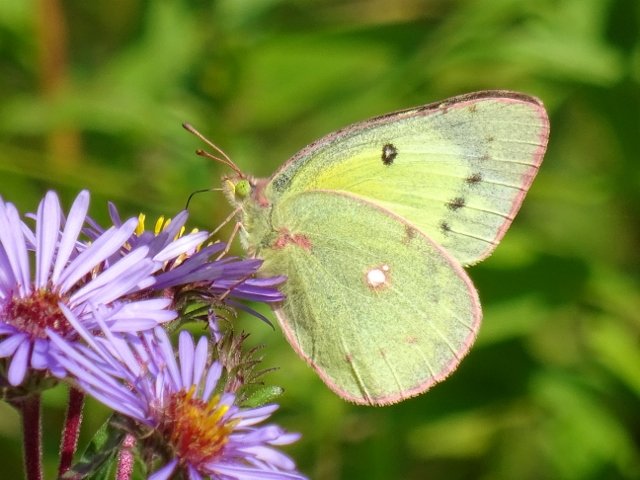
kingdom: Animalia
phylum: Arthropoda
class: Insecta
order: Lepidoptera
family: Pieridae
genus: Colias
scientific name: Colias philodice
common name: Clouded Sulphur
